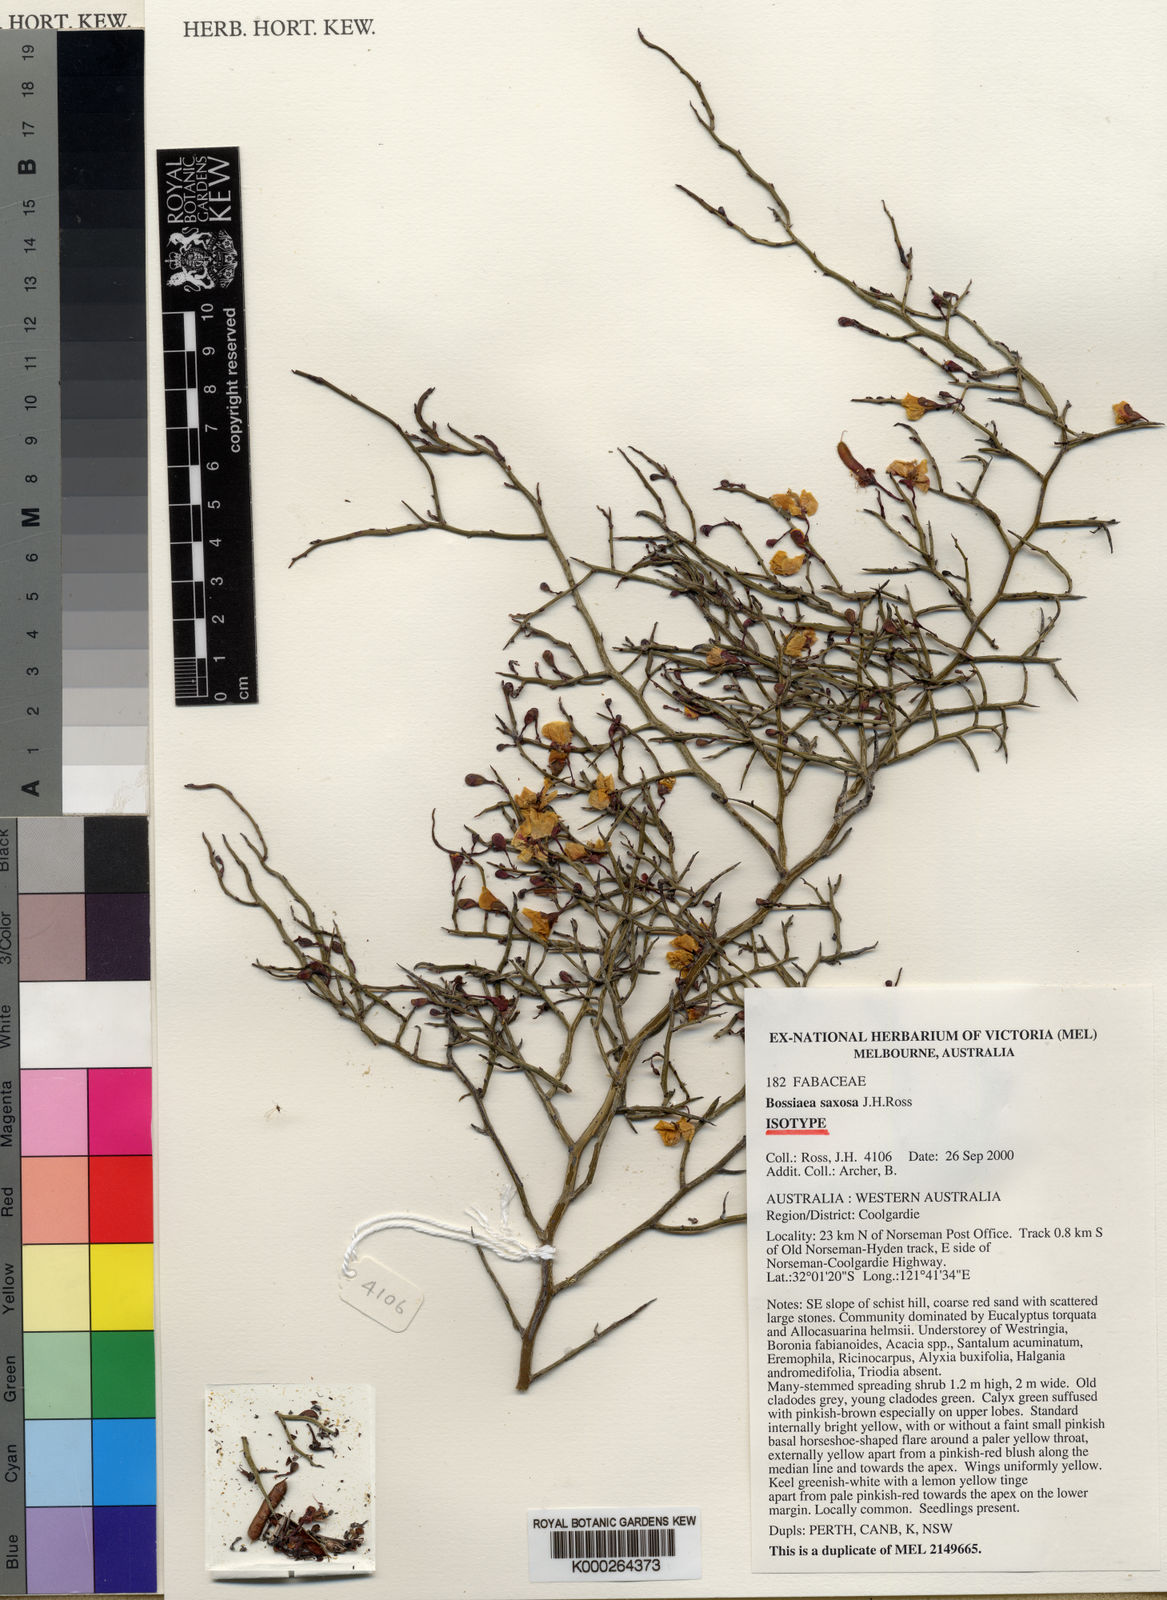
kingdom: Plantae
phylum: Tracheophyta
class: Magnoliopsida
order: Fabales
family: Fabaceae
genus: Bossiaea
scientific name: Bossiaea saxosa
